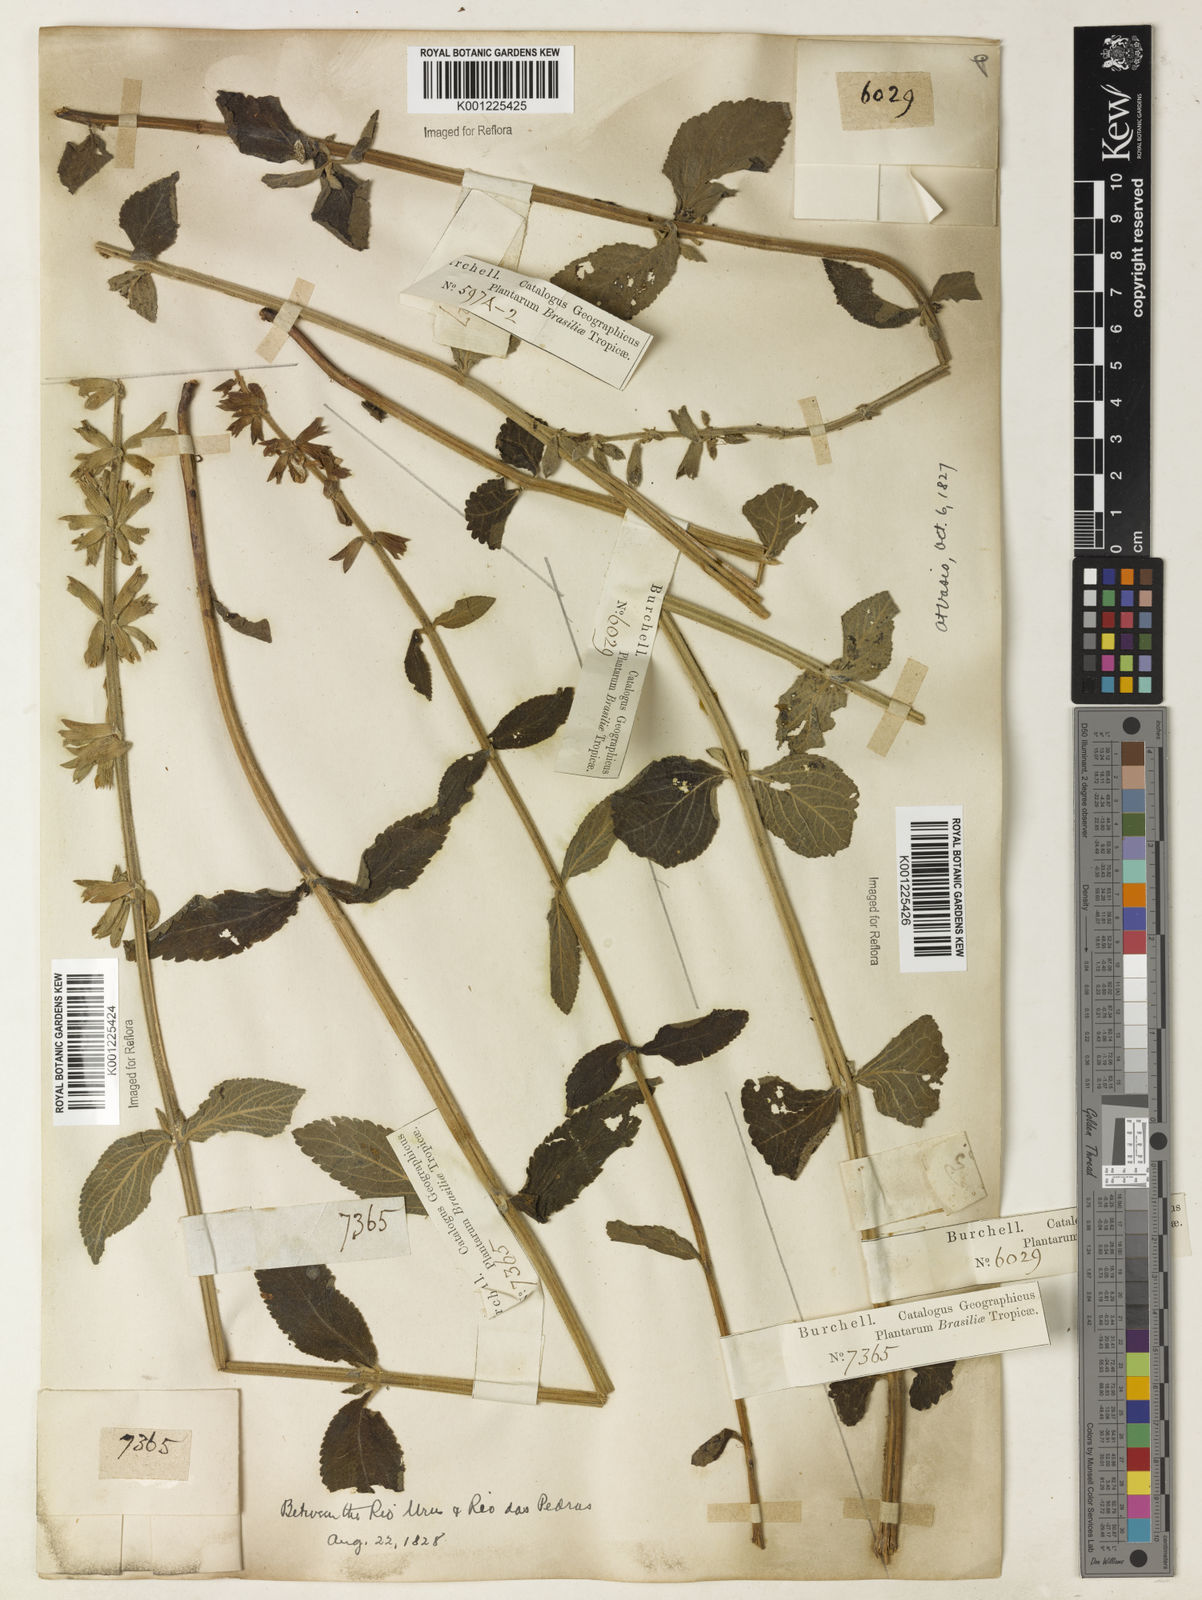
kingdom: Plantae
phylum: Tracheophyta
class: Magnoliopsida
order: Lamiales
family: Lamiaceae
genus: Salvia
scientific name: Salvia tomentella
